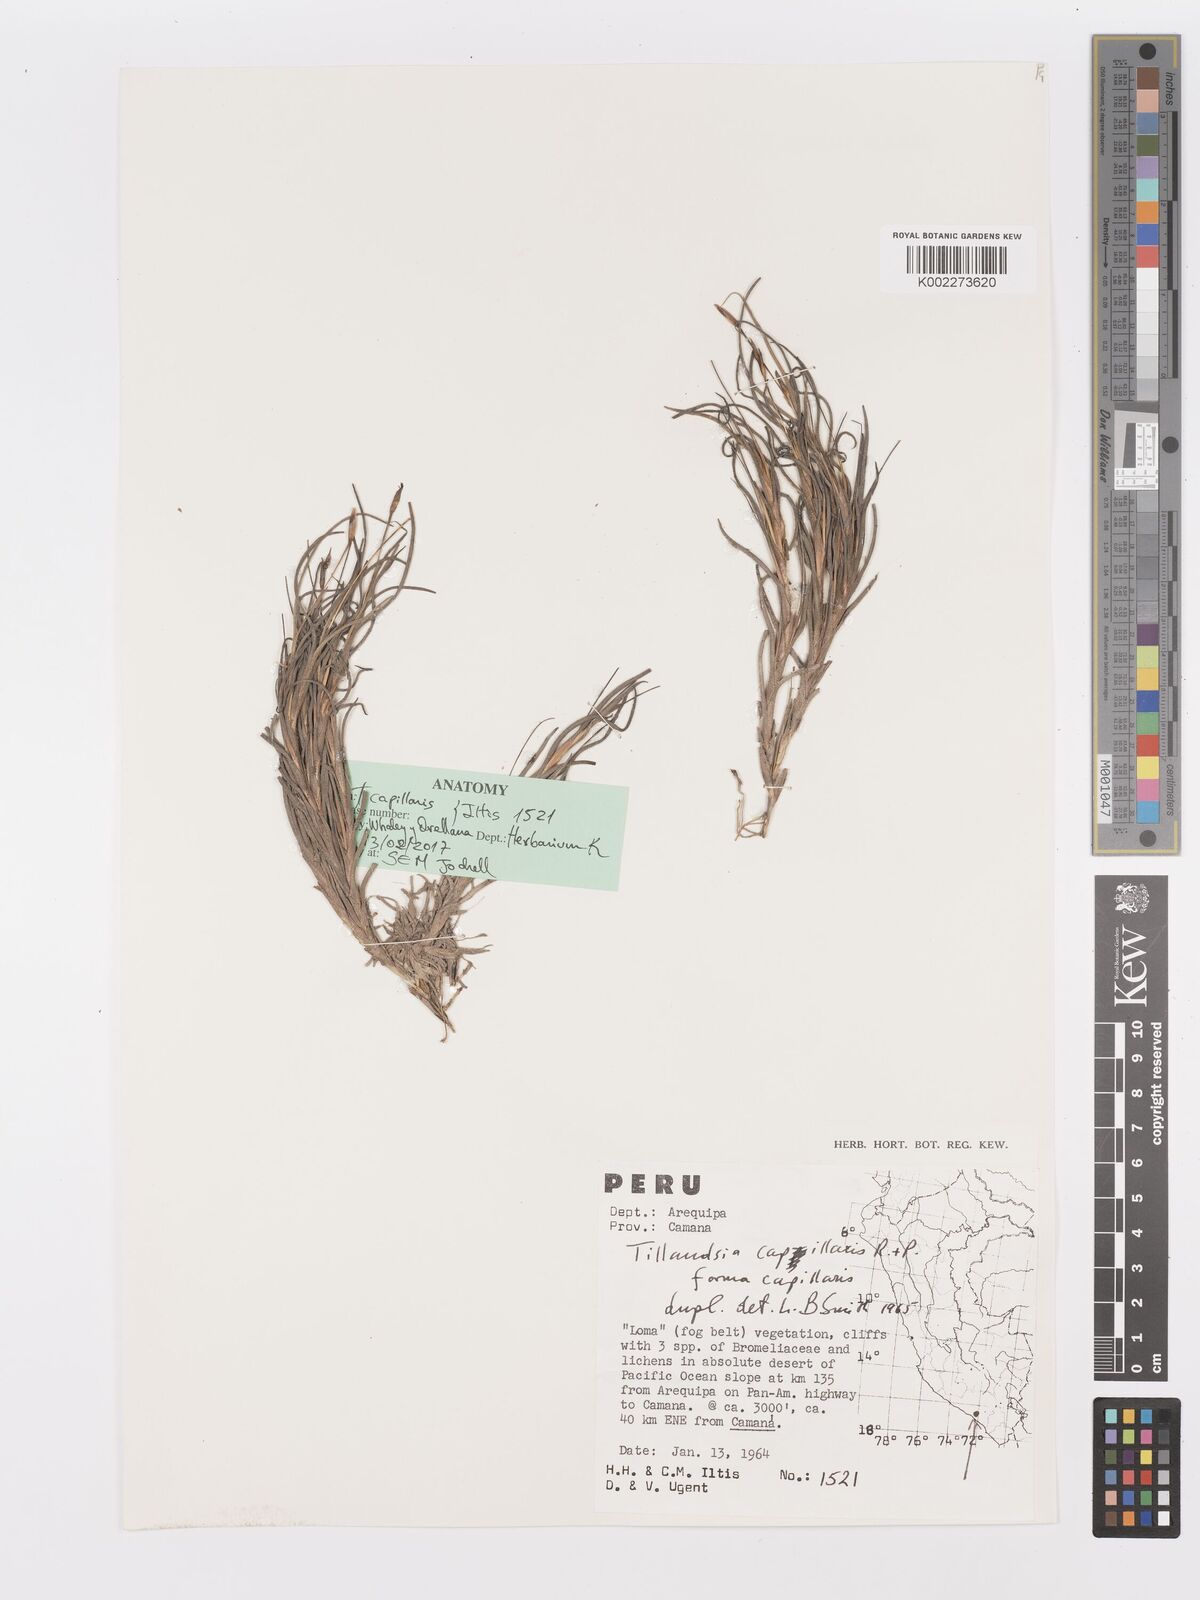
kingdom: Plantae
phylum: Tracheophyta
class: Liliopsida
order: Poales
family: Bromeliaceae
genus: Tillandsia
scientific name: Tillandsia capillaris
